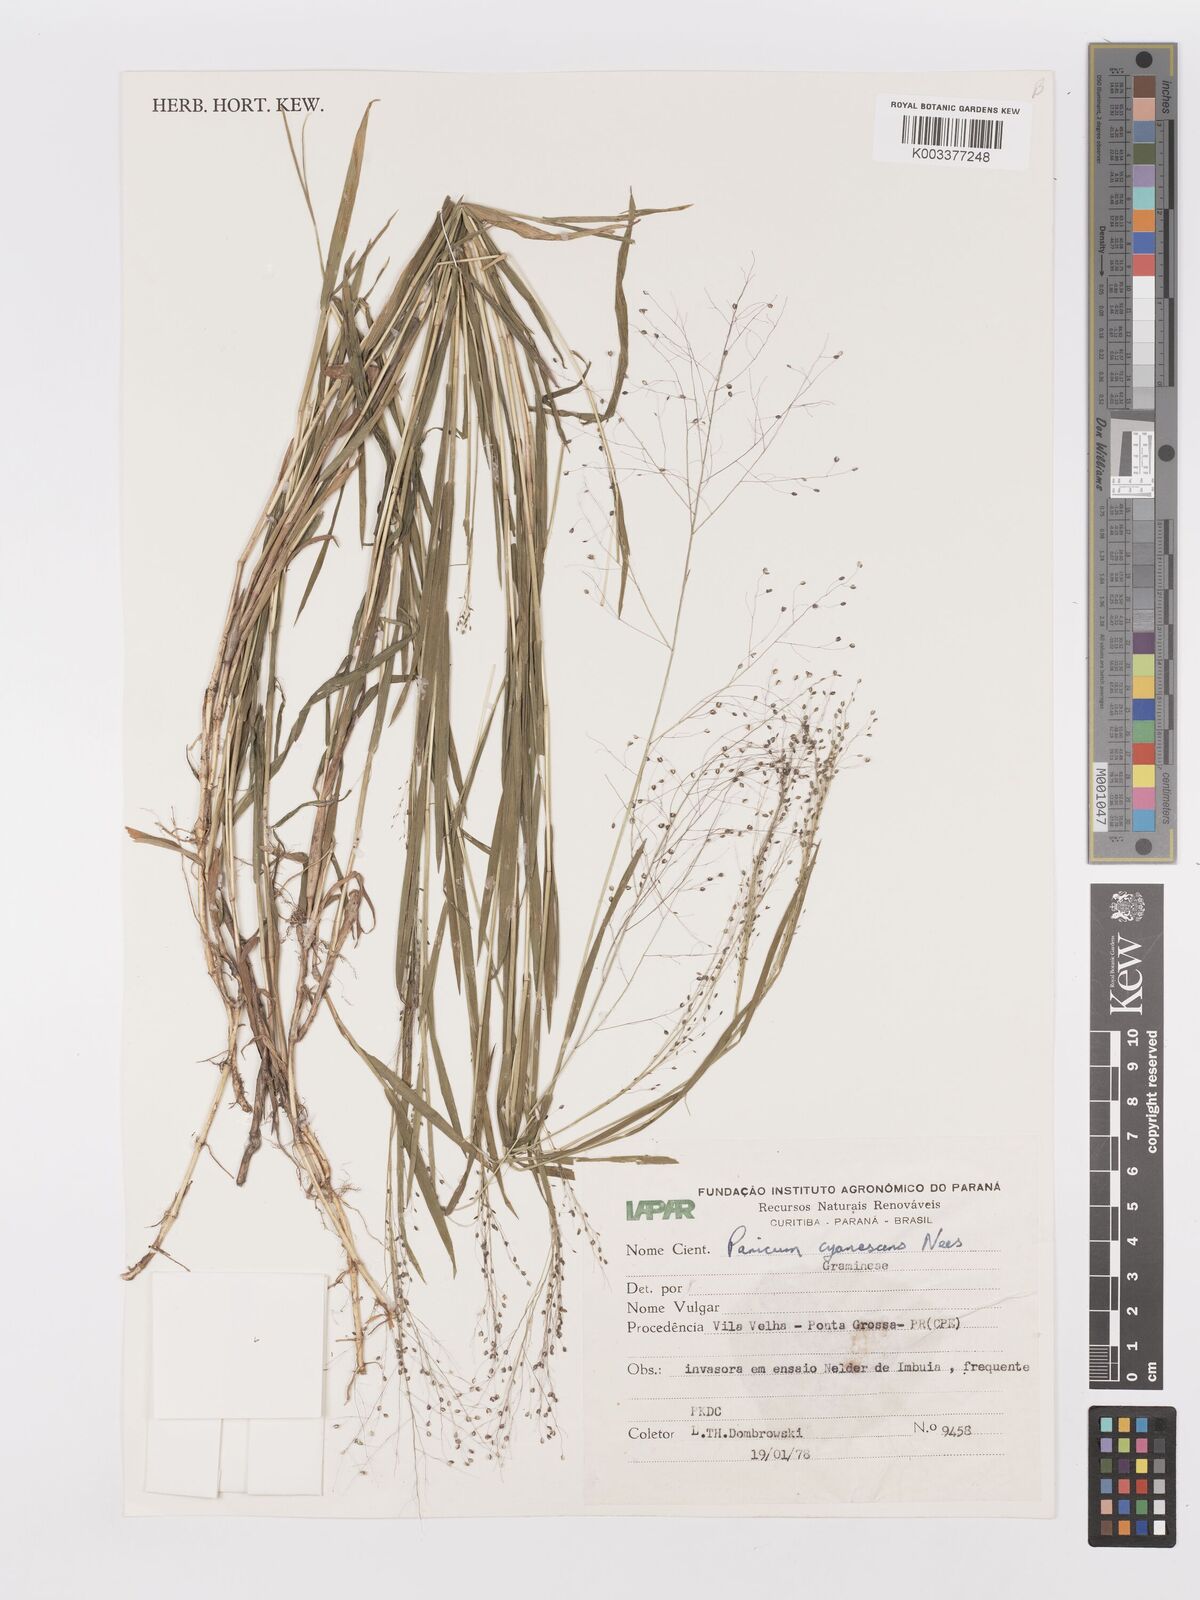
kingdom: Plantae
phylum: Tracheophyta
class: Liliopsida
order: Poales
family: Poaceae
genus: Trichanthecium
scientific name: Trichanthecium pseudisachne
